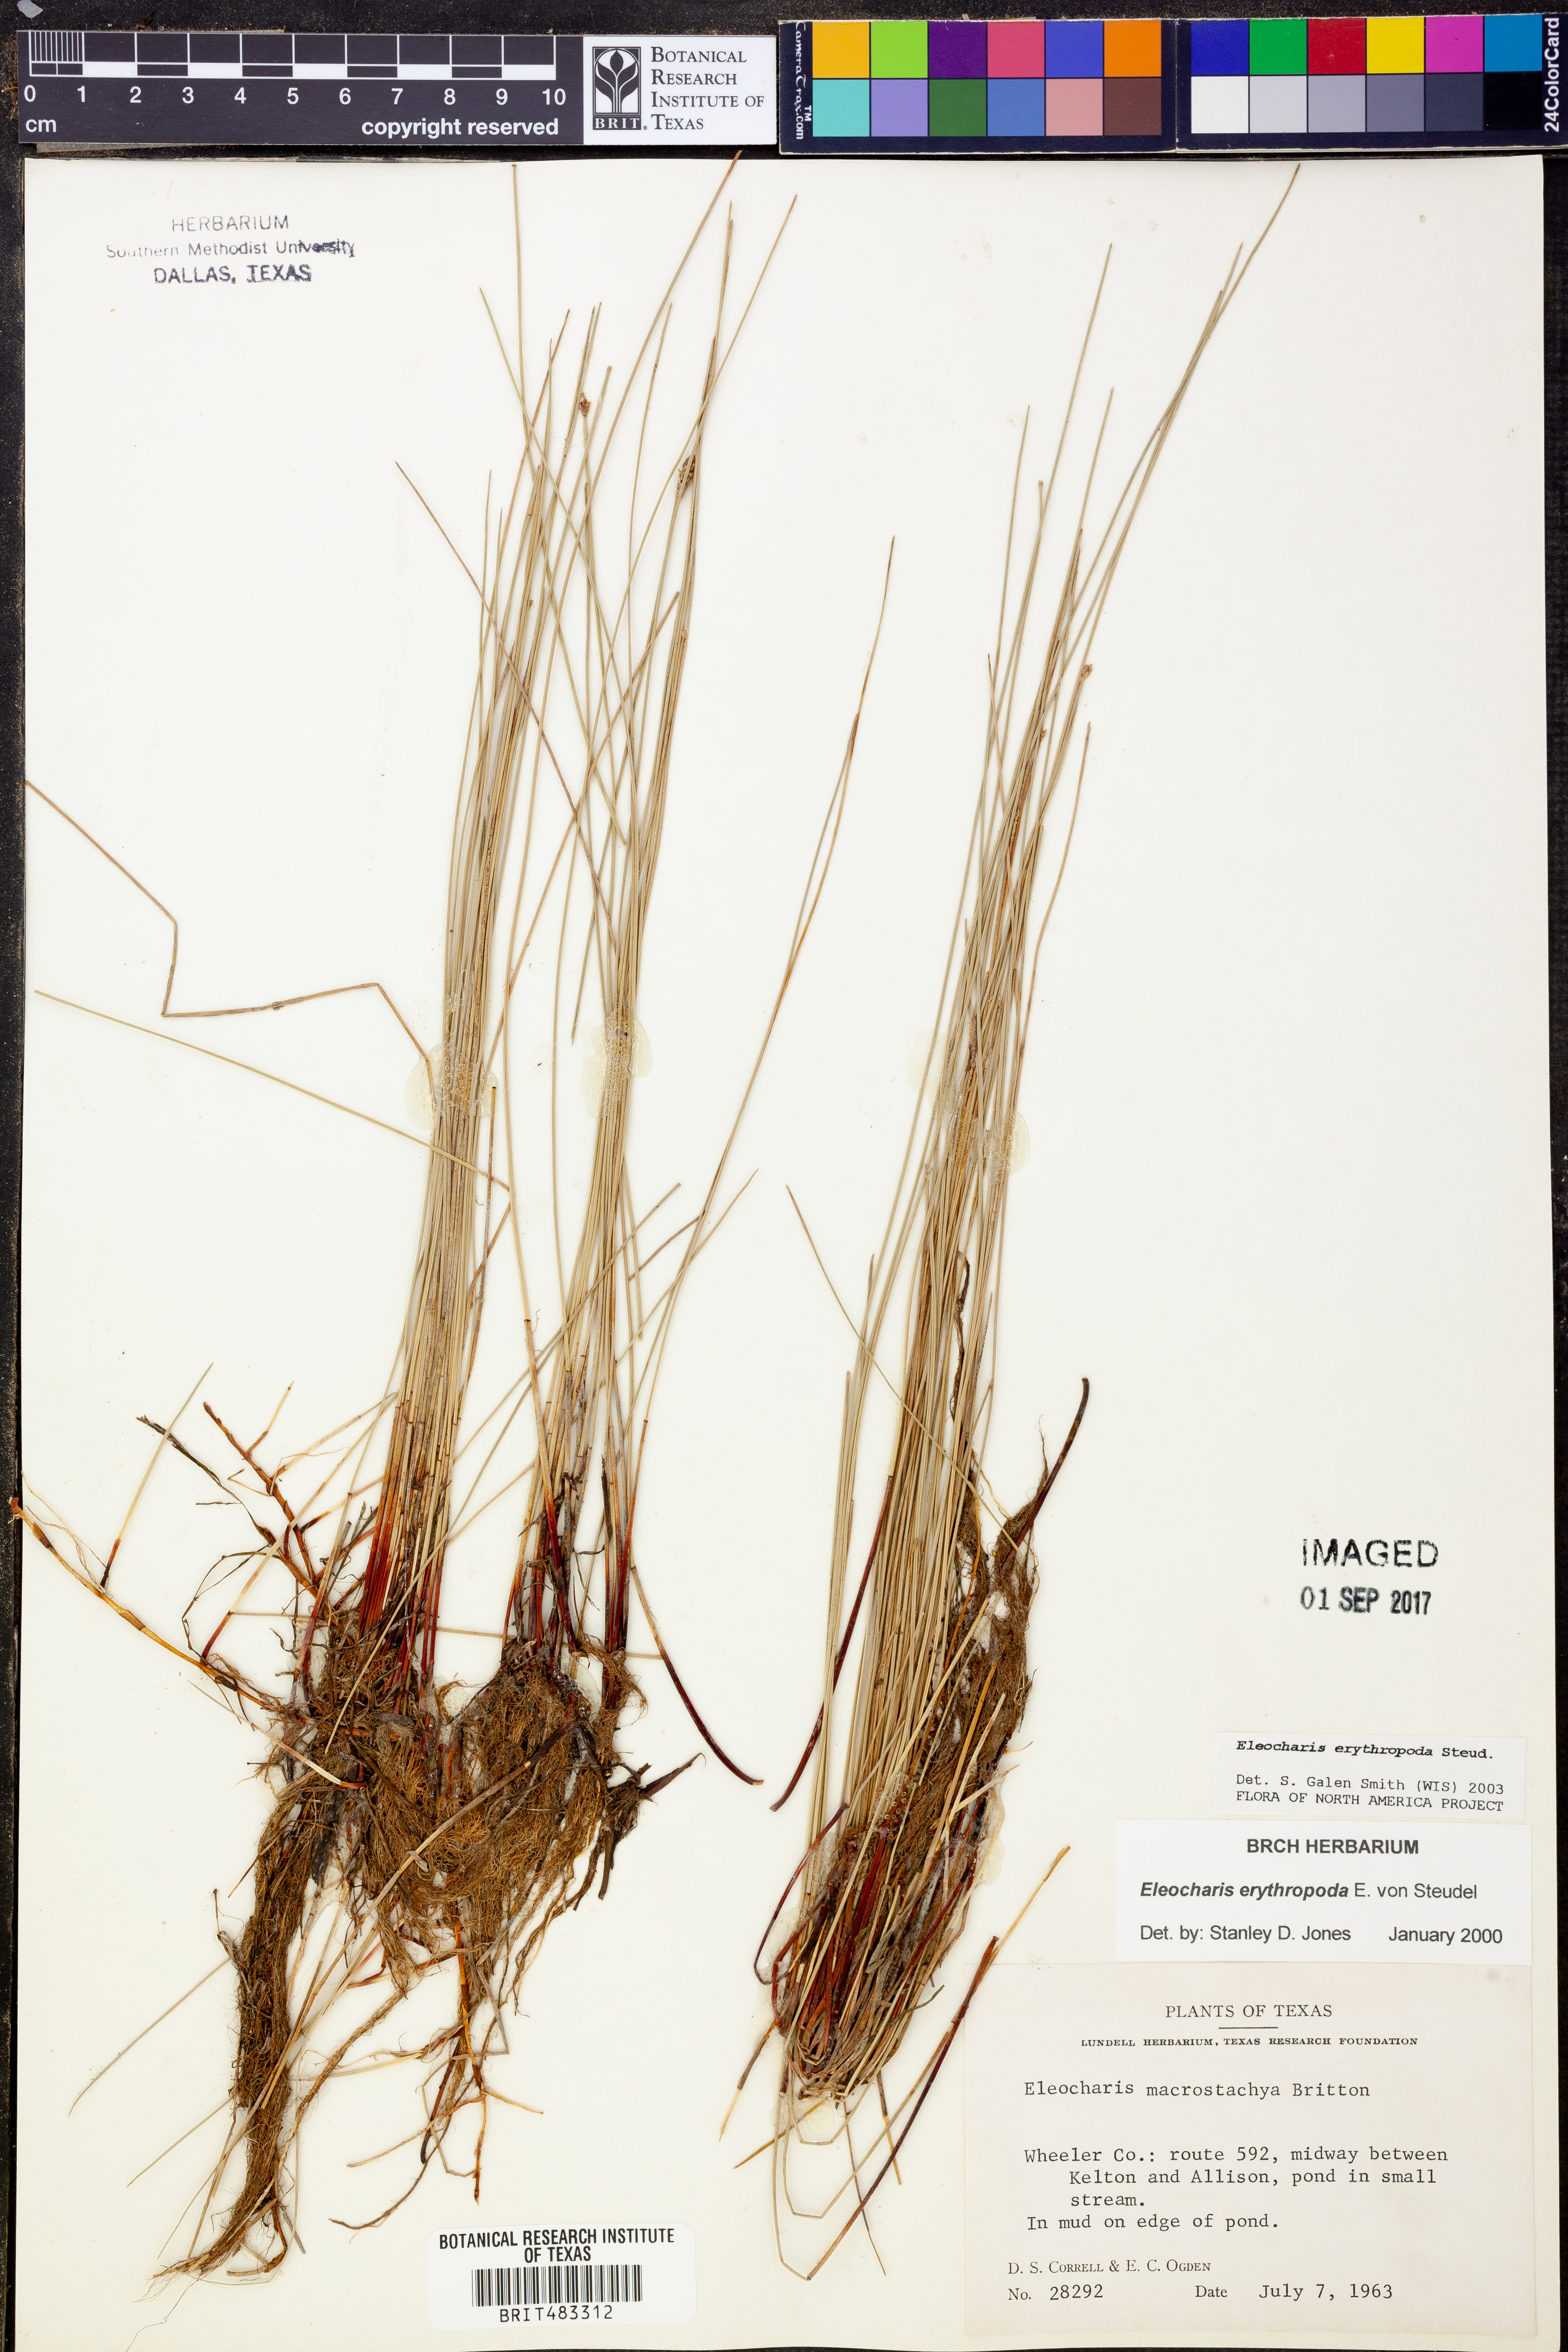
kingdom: Plantae
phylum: Tracheophyta
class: Liliopsida
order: Poales
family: Cyperaceae
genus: Eleocharis
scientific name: Eleocharis erythropoda
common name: Bald spikerush
